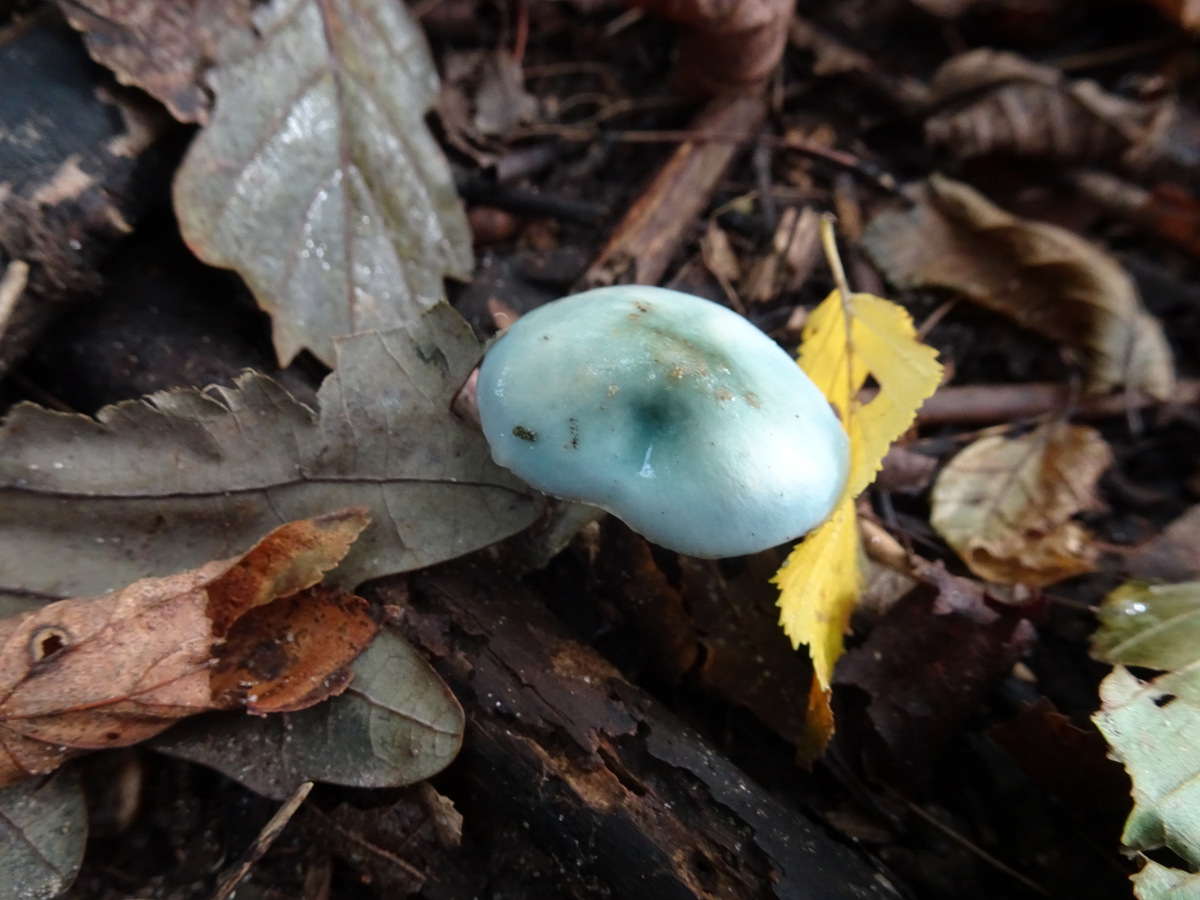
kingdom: Fungi
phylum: Basidiomycota
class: Agaricomycetes
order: Agaricales
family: Strophariaceae
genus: Stropharia
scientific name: Stropharia cyanea
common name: blågrøn bredblad
